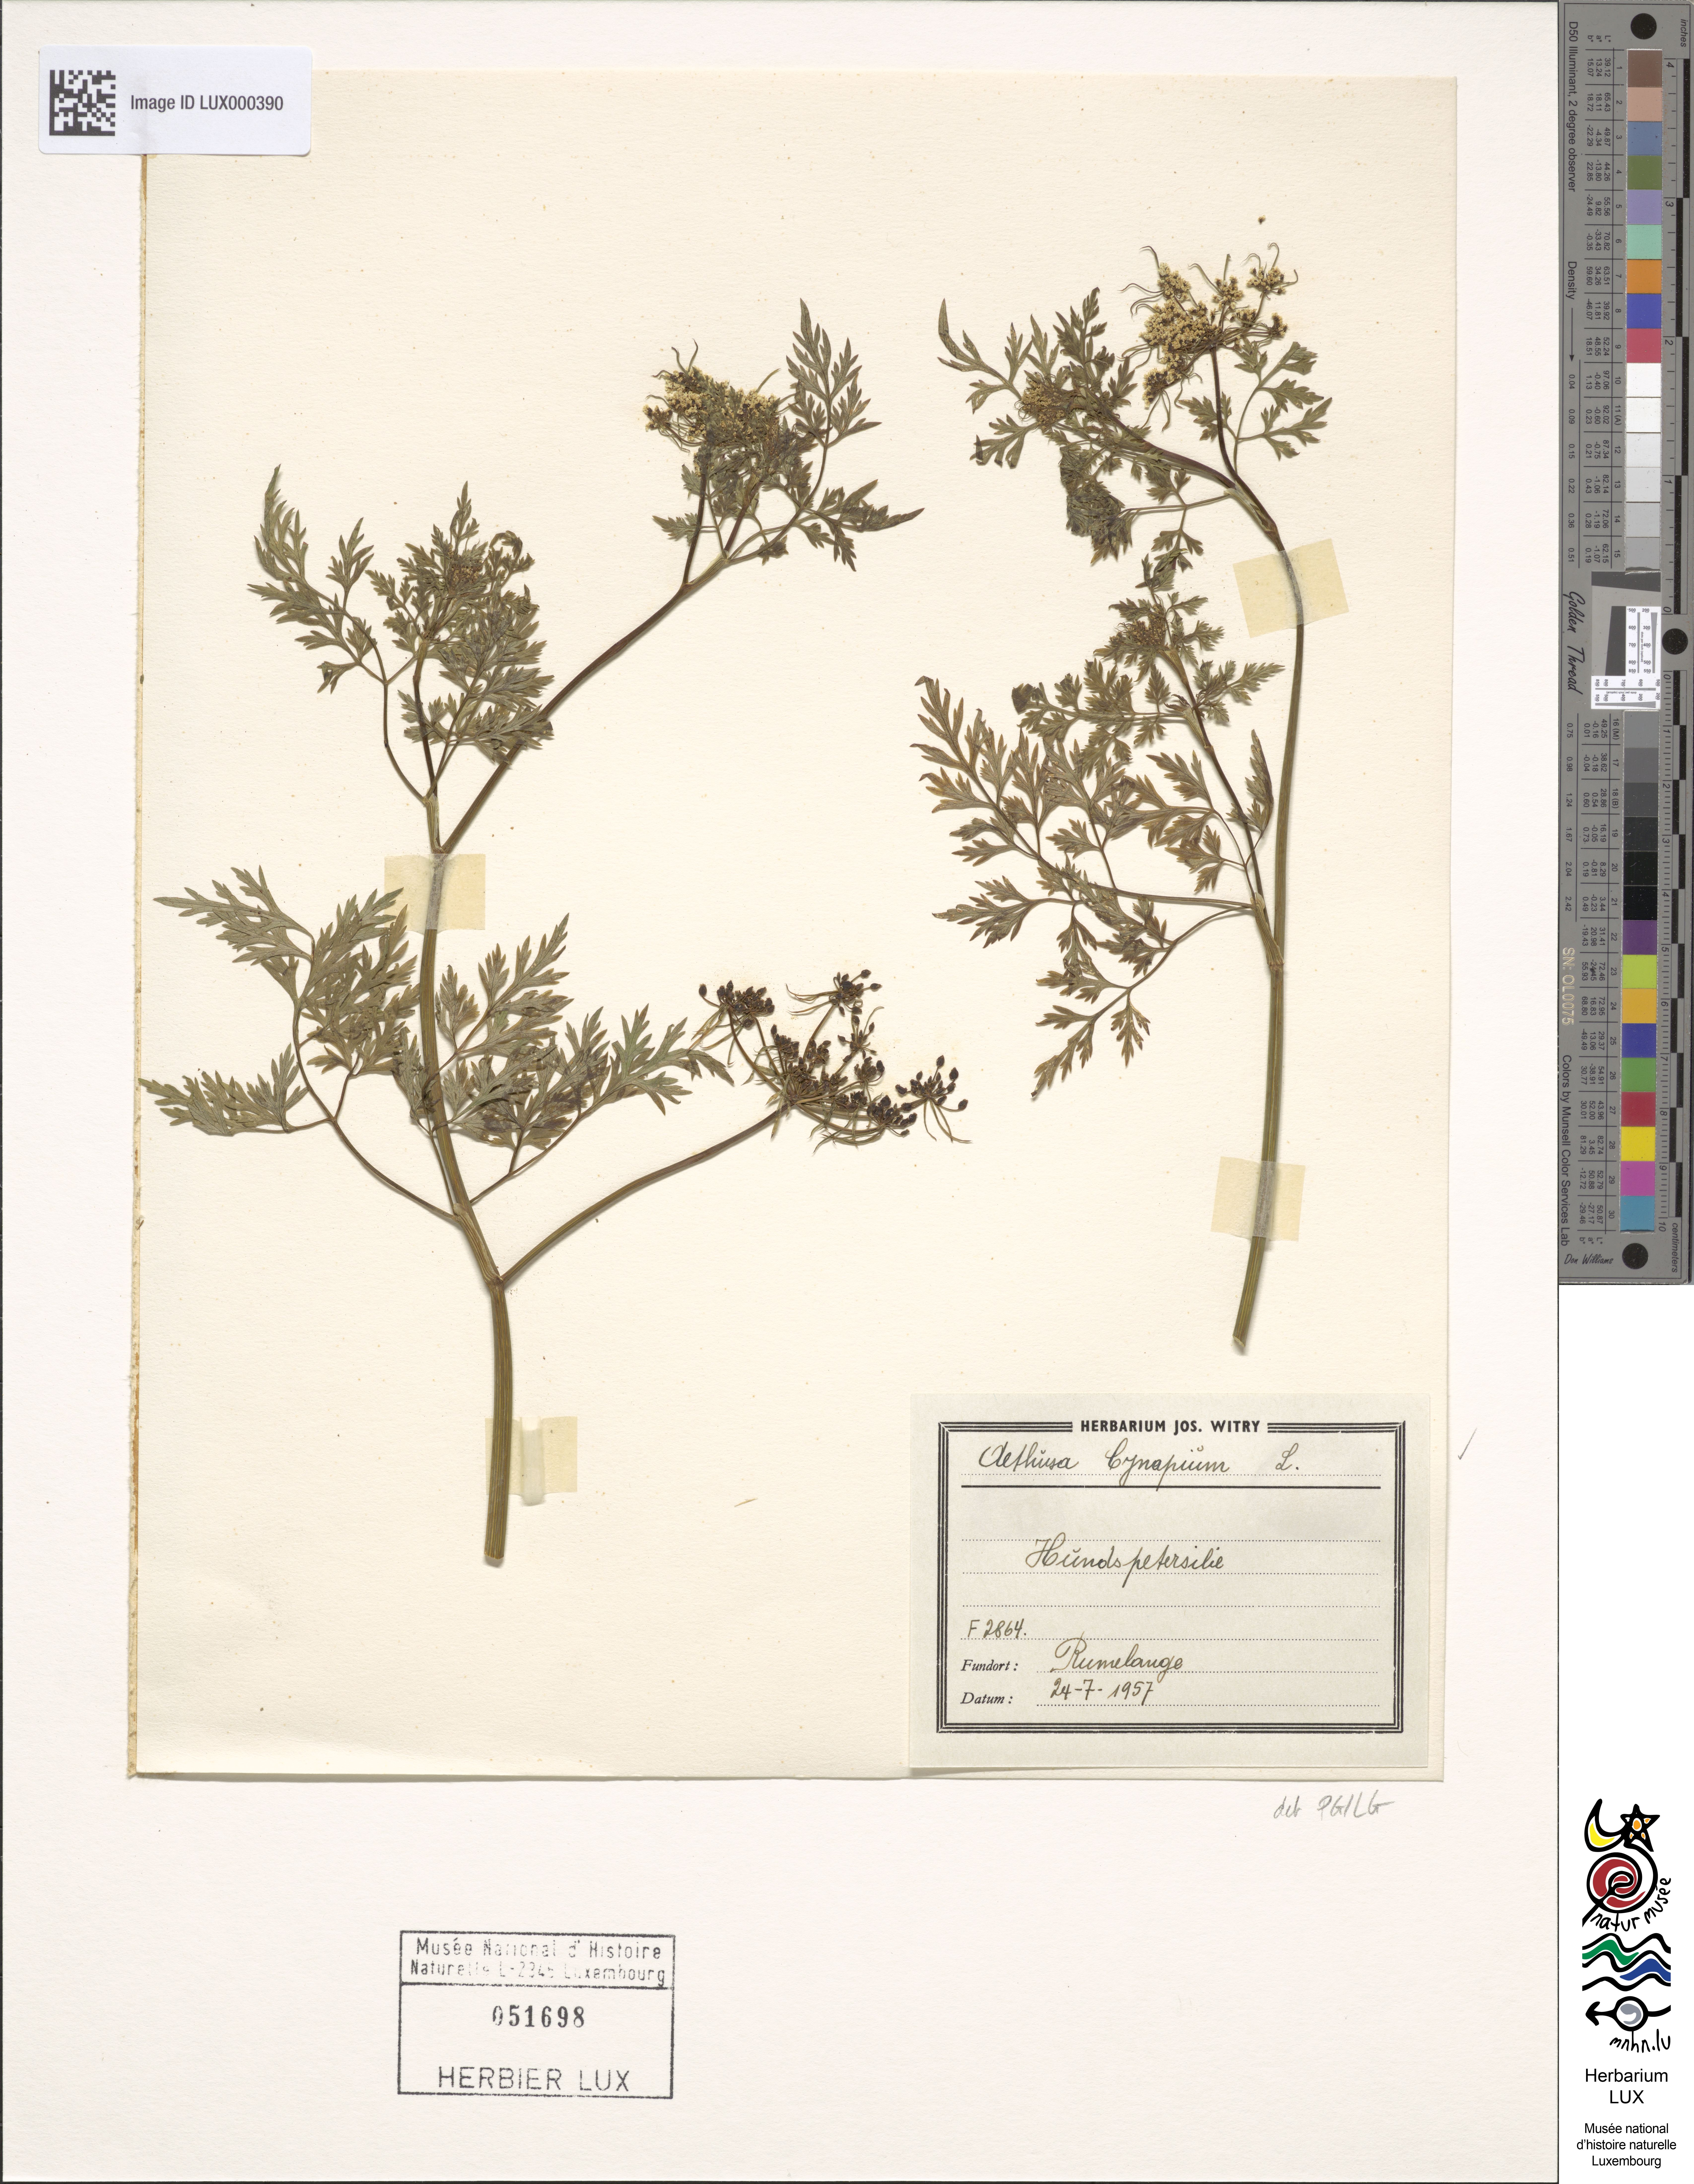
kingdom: Plantae
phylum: Tracheophyta
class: Magnoliopsida
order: Apiales
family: Apiaceae
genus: Aethusa
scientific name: Aethusa cynapium
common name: Fool's parsley
